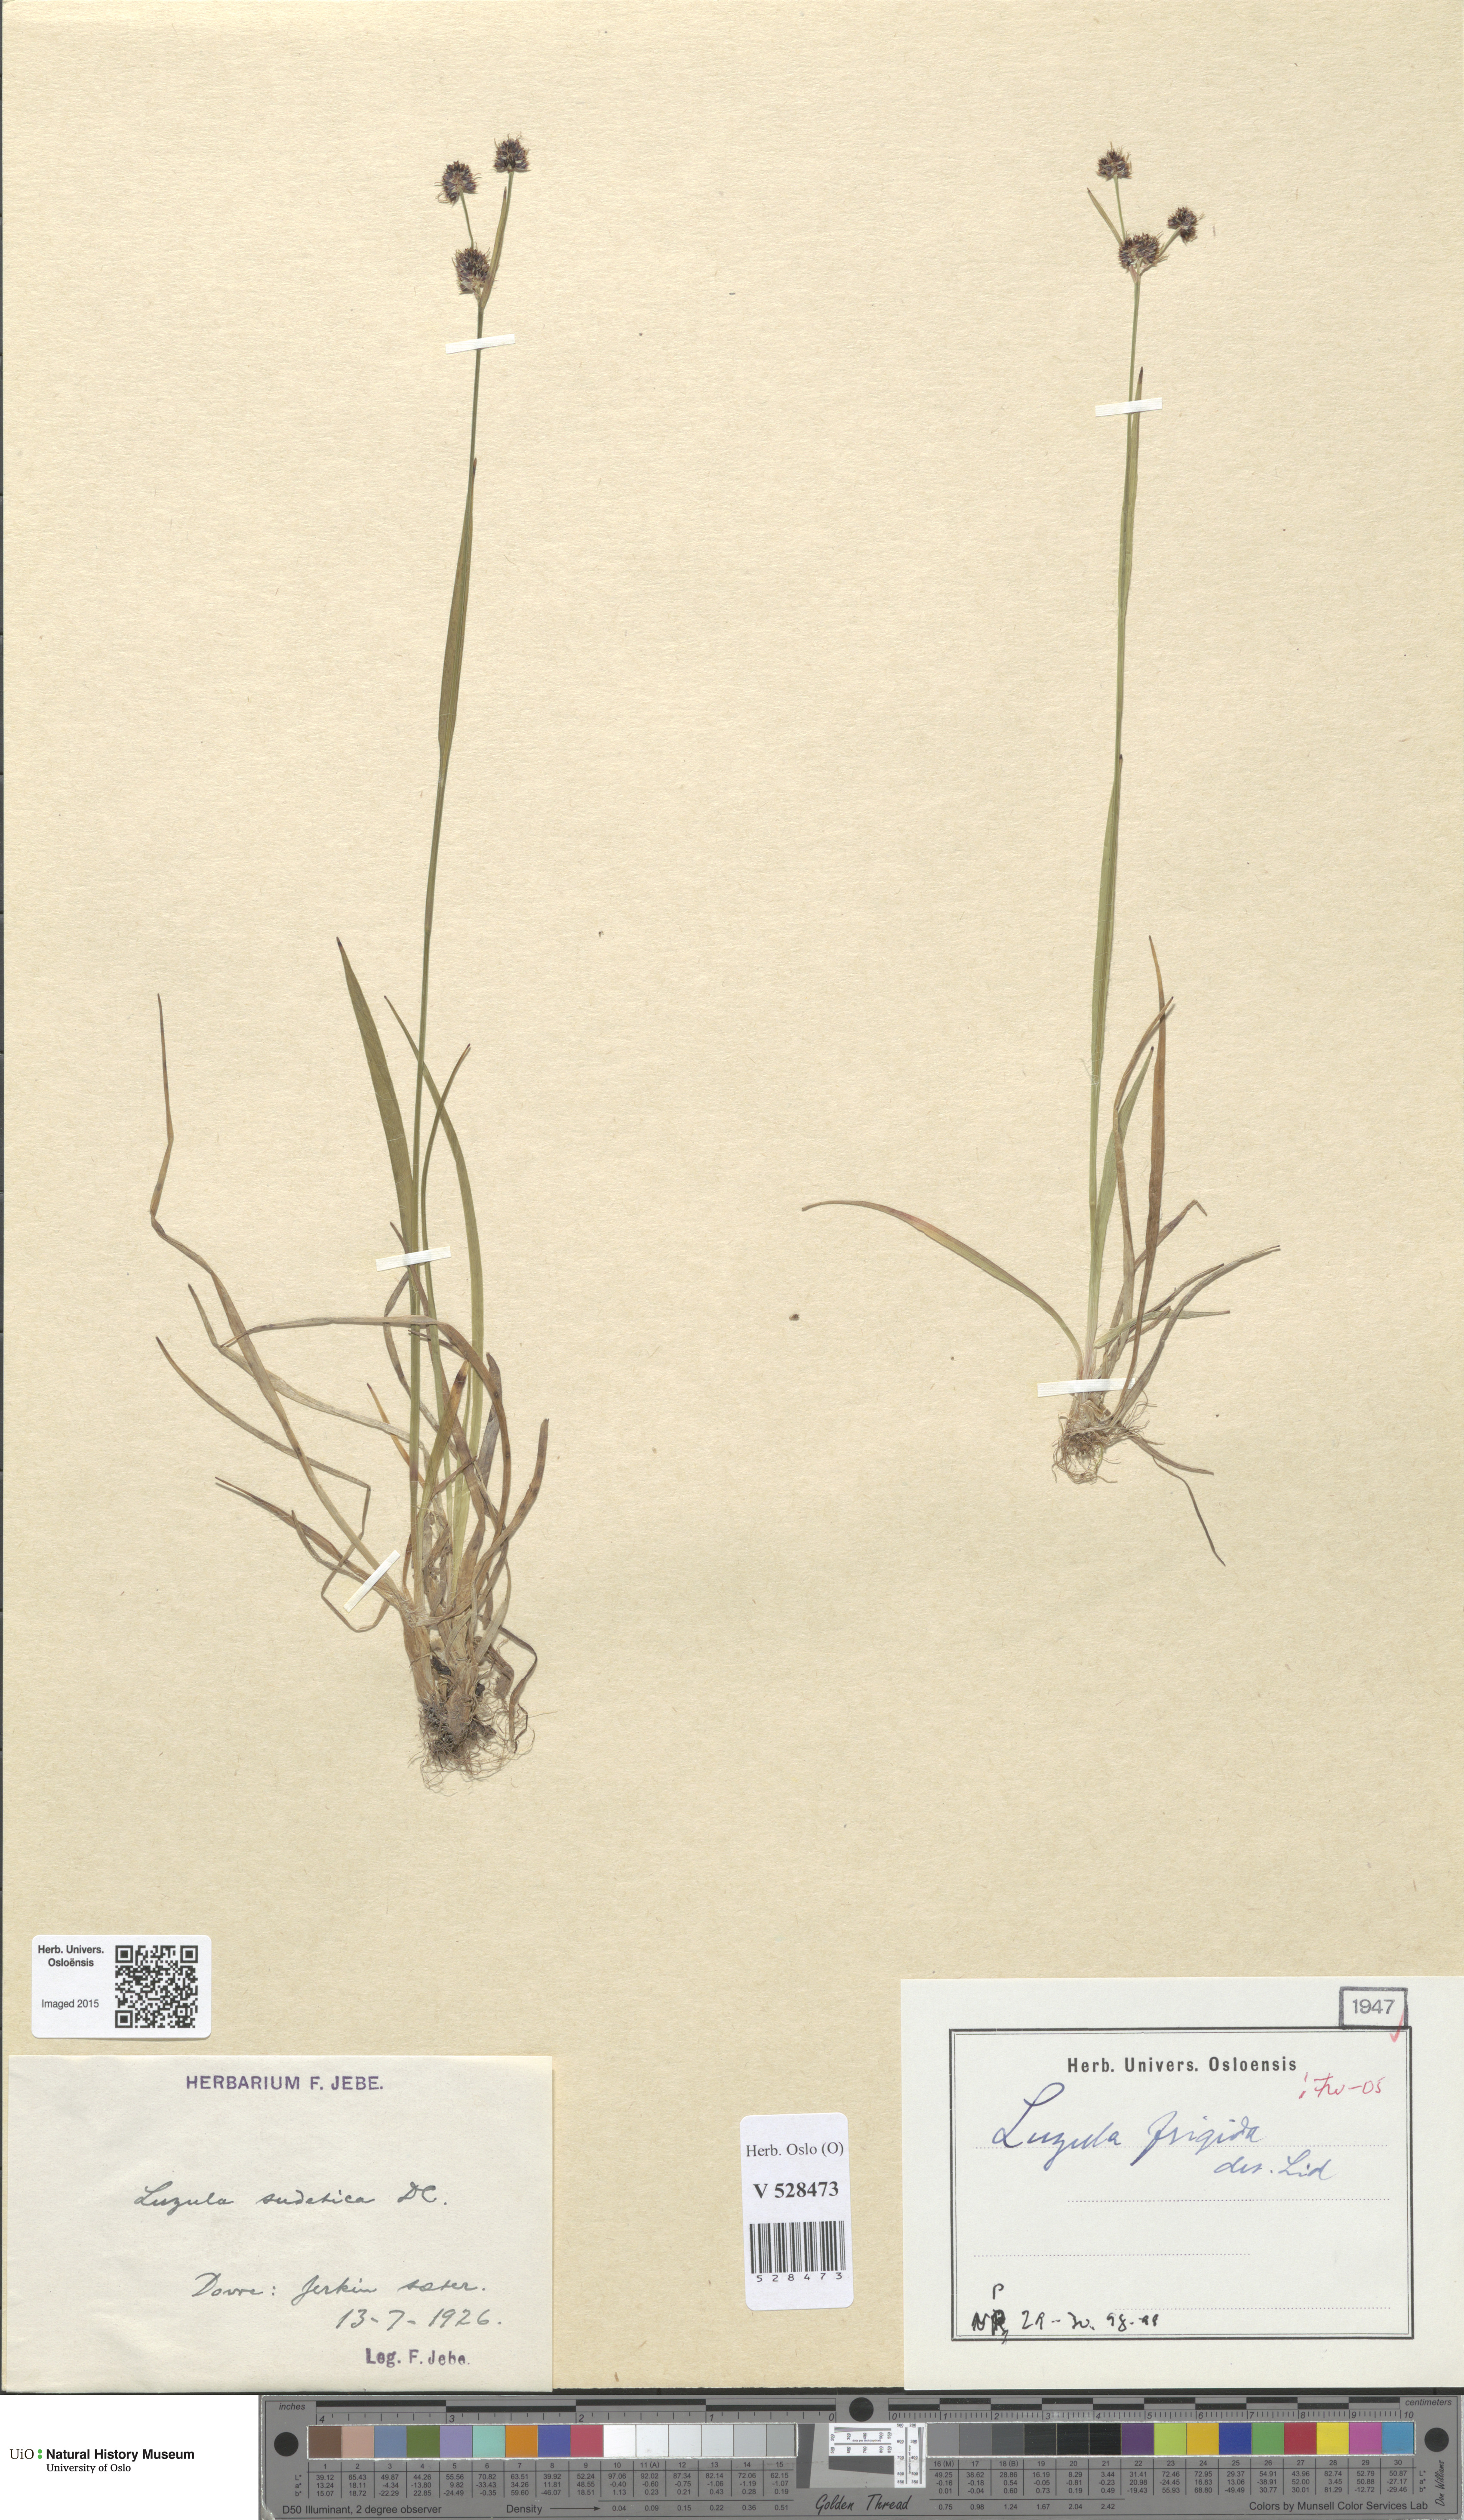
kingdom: Plantae
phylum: Tracheophyta
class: Liliopsida
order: Poales
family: Juncaceae
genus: Luzula
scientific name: Luzula multiflora
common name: Heath wood-rush
